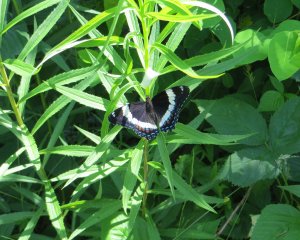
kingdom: Animalia
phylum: Arthropoda
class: Insecta
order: Lepidoptera
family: Nymphalidae
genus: Limenitis
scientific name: Limenitis arthemis
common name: Red-spotted Admiral
